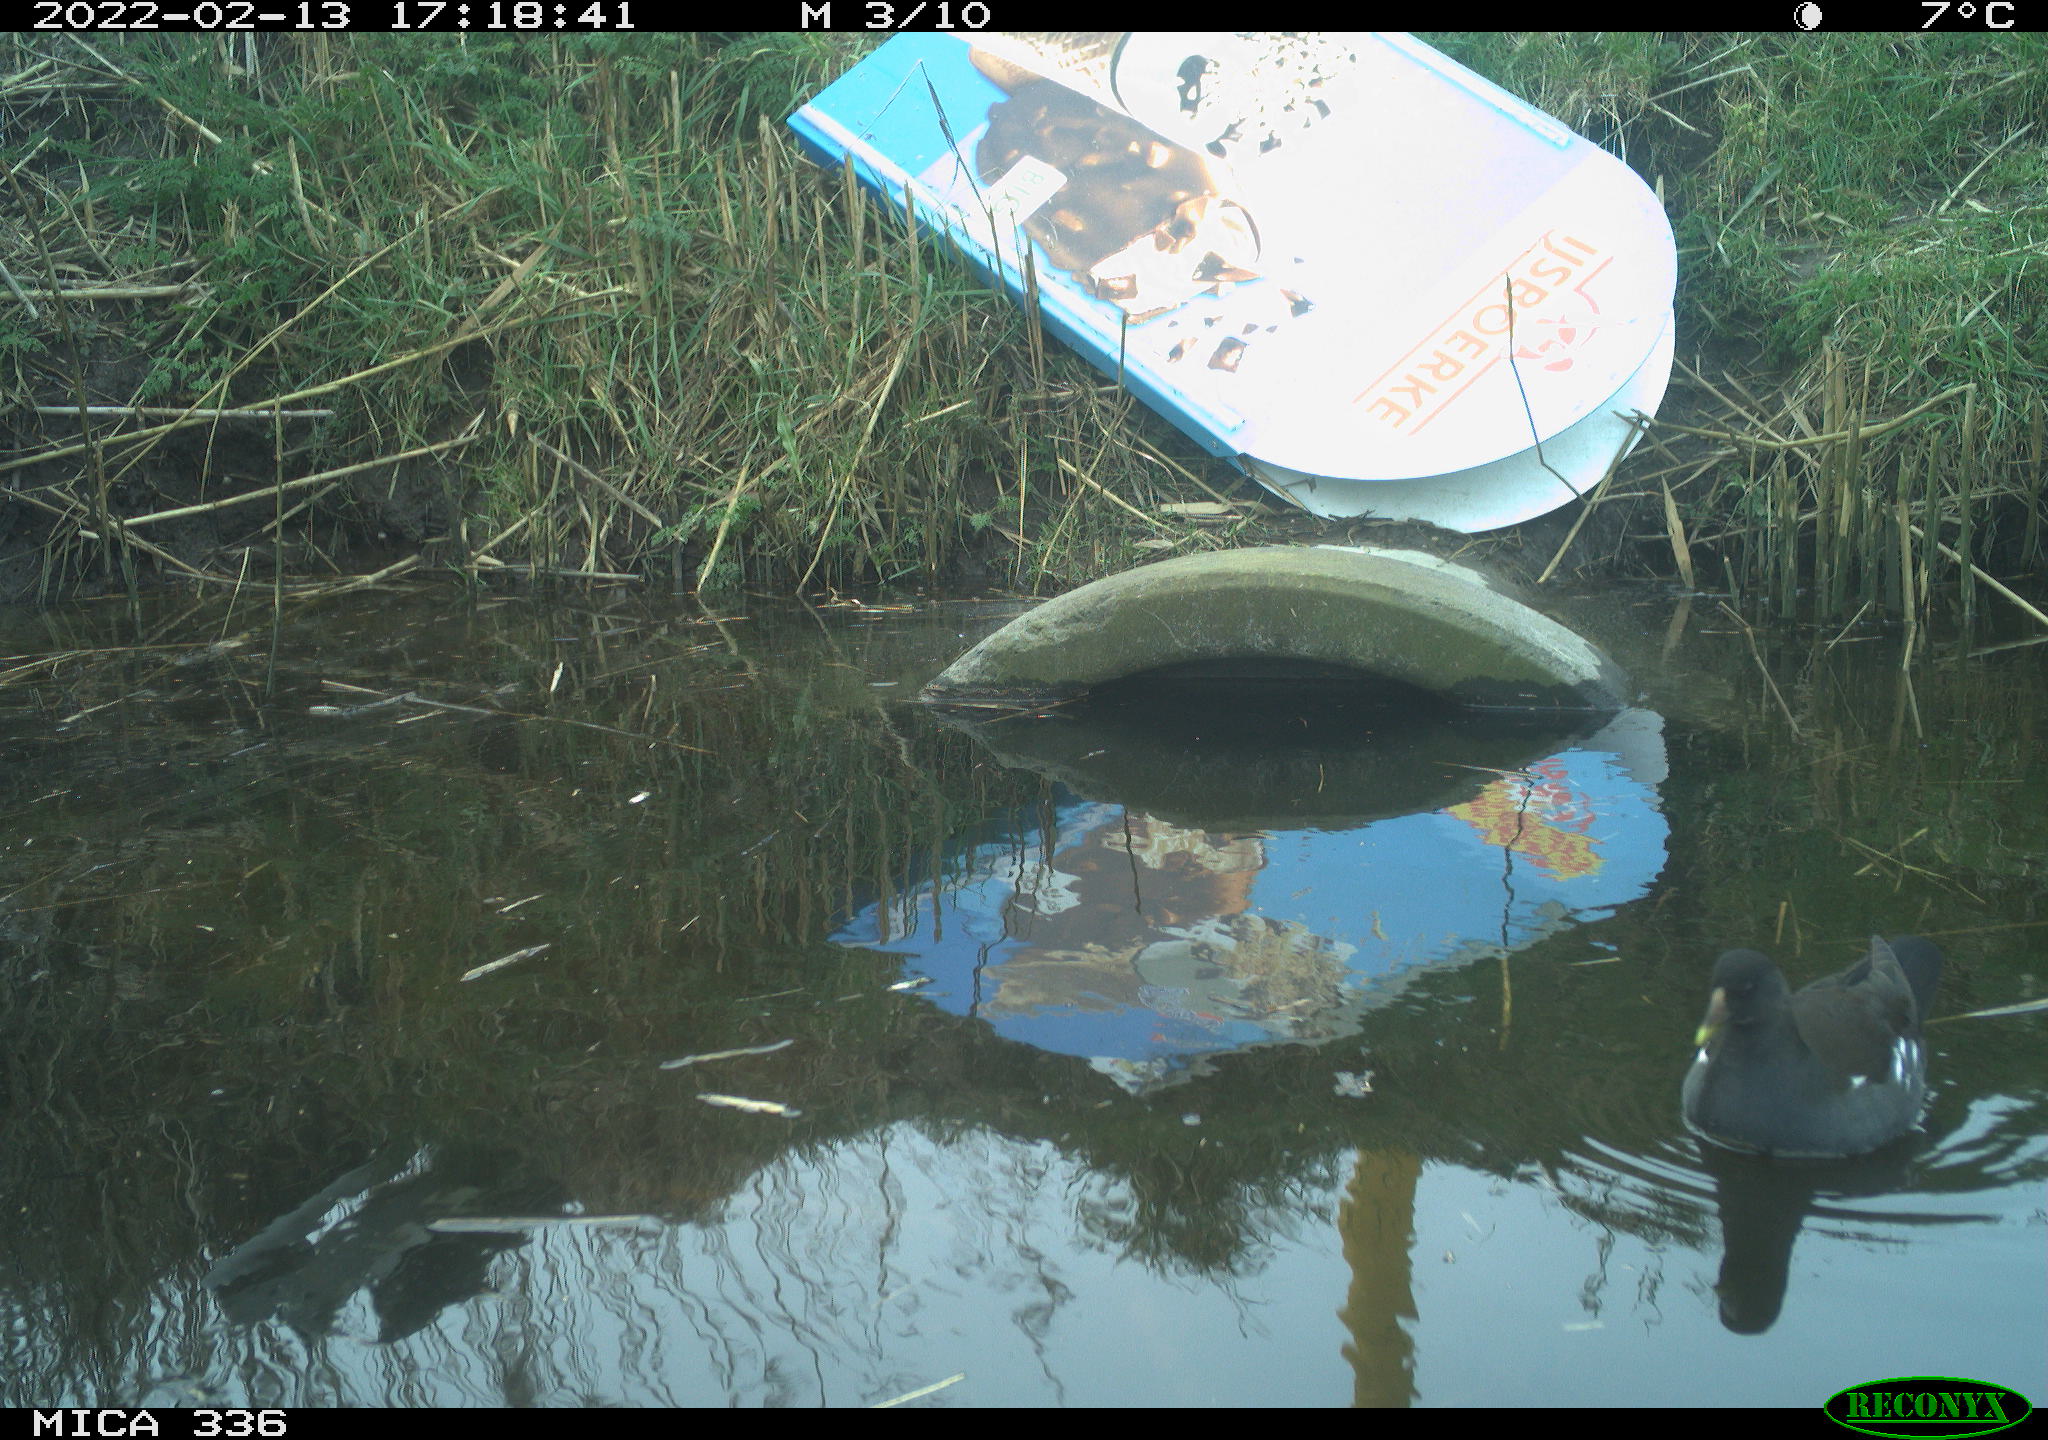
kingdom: Animalia
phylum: Chordata
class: Aves
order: Gruiformes
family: Rallidae
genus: Gallinula
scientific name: Gallinula chloropus
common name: Common moorhen
